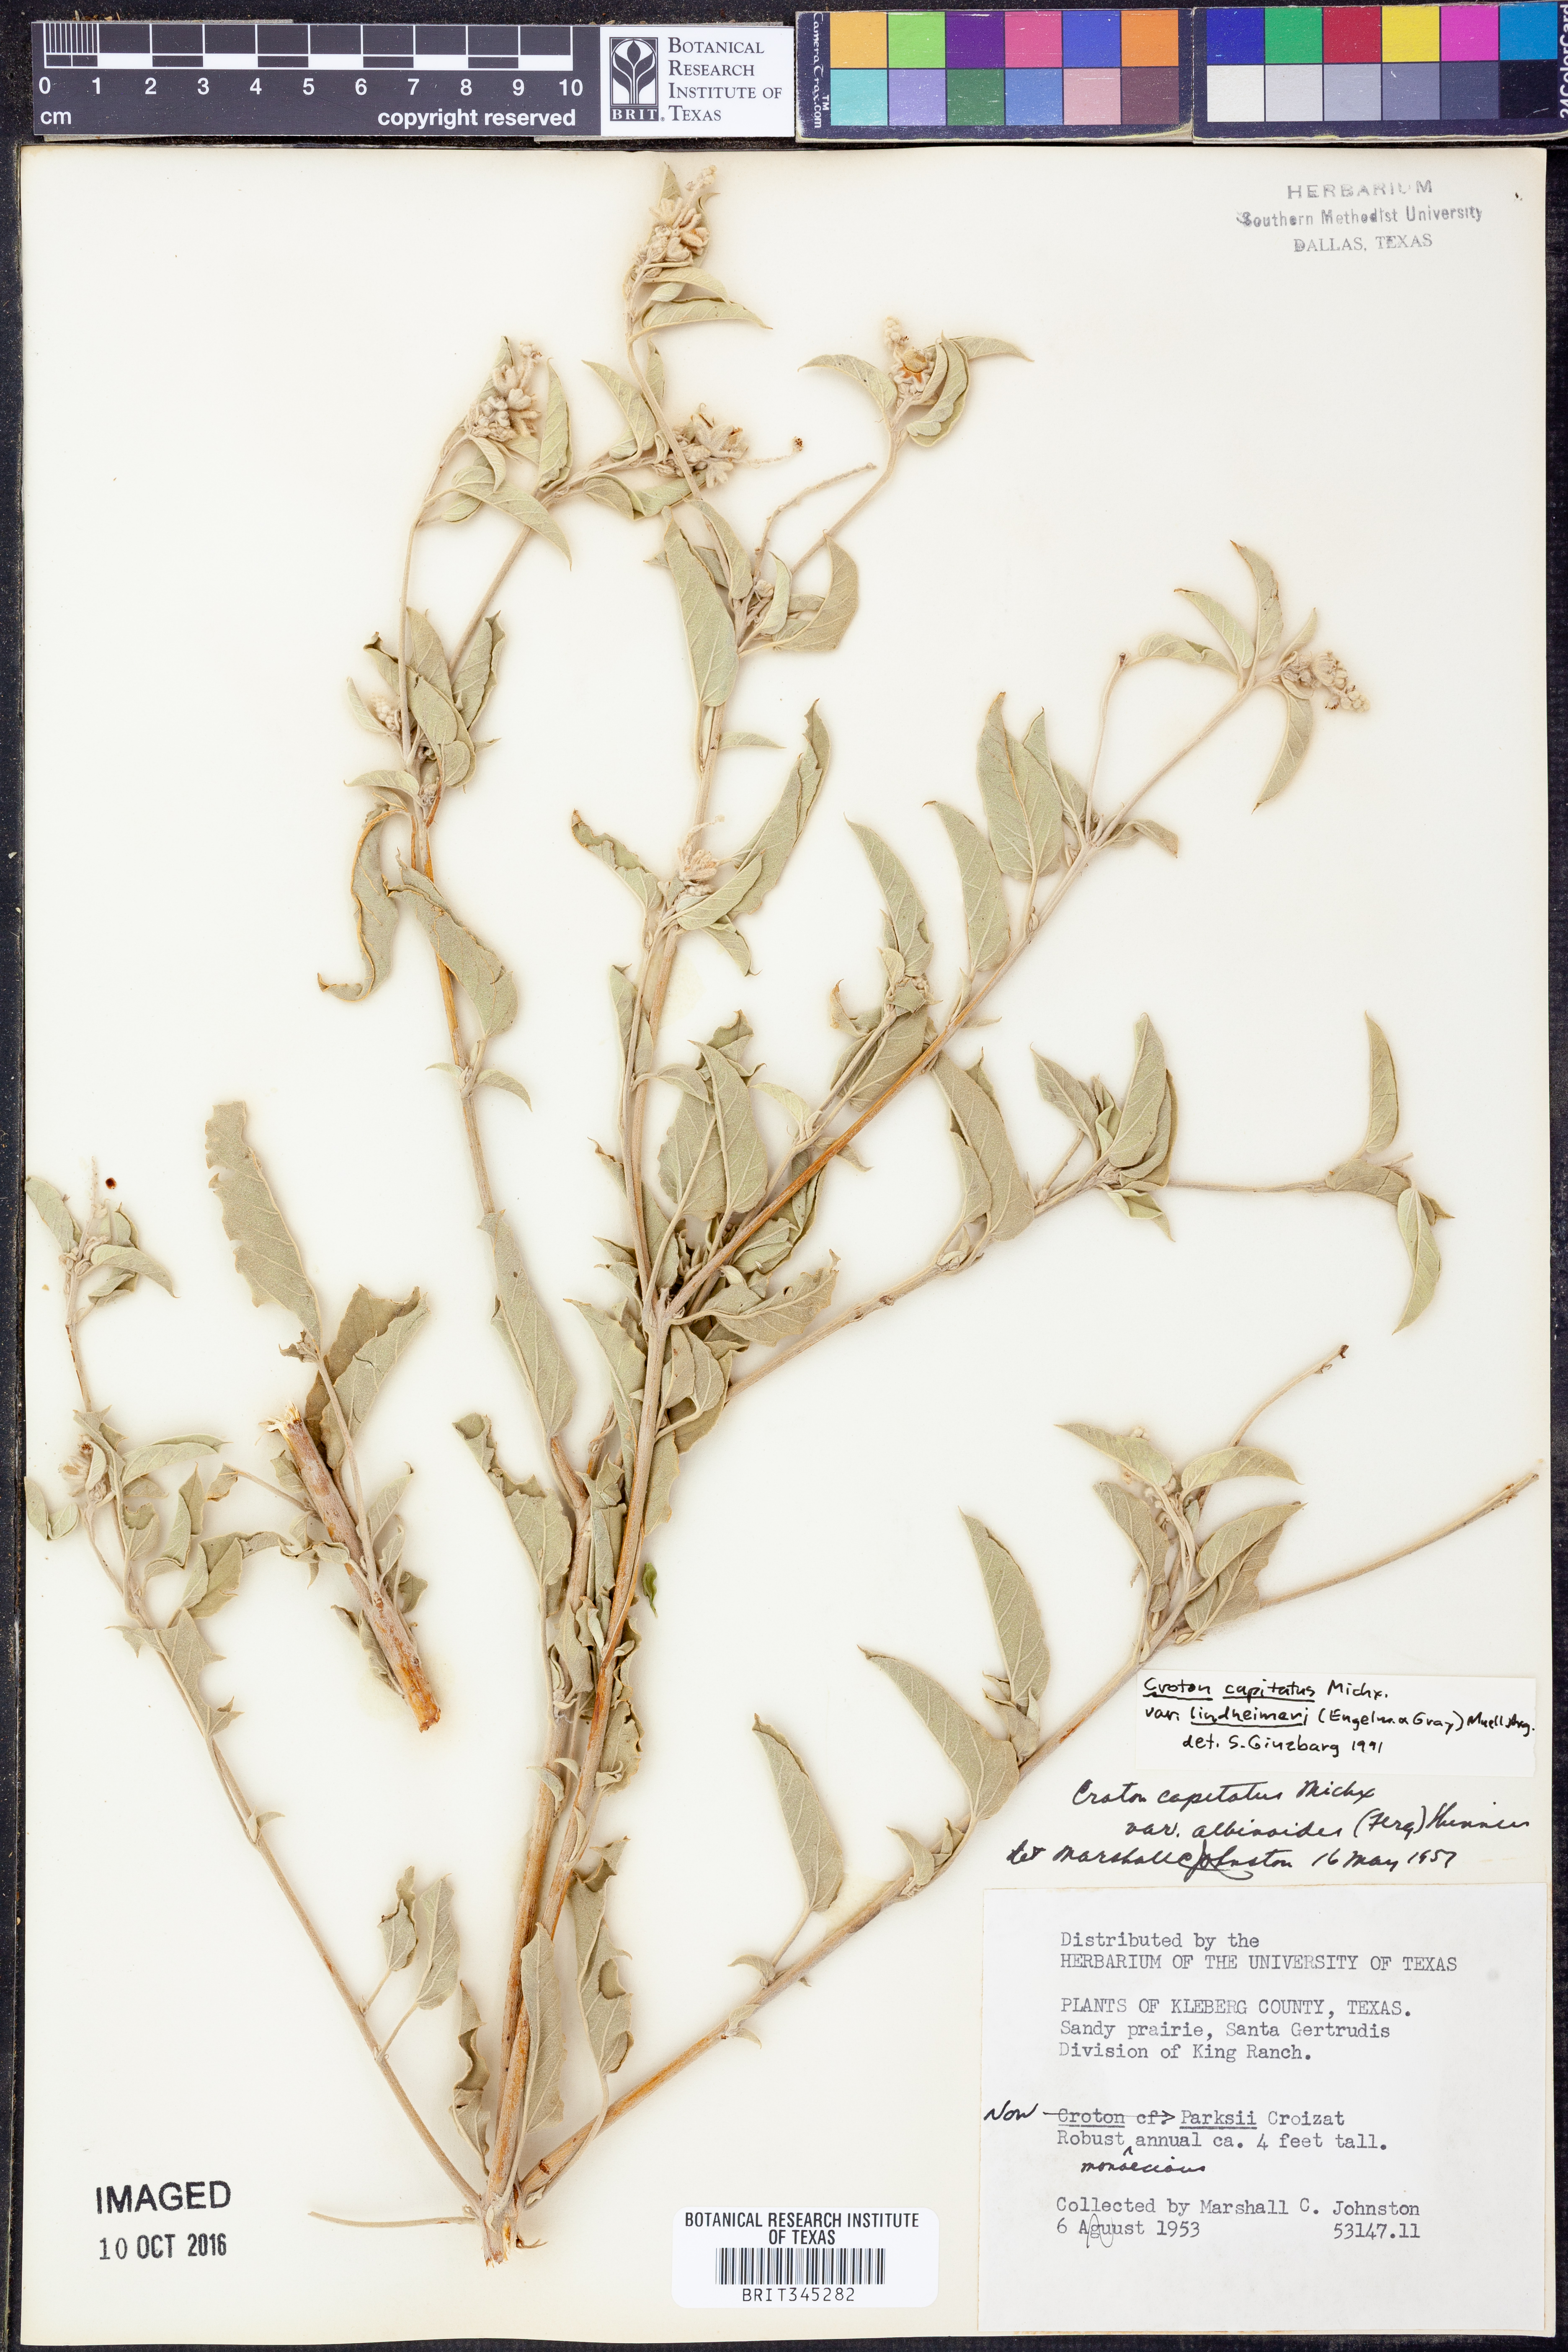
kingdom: Plantae
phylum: Tracheophyta
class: Magnoliopsida
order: Malpighiales
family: Euphorbiaceae
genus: Croton
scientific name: Croton lindheimeri
